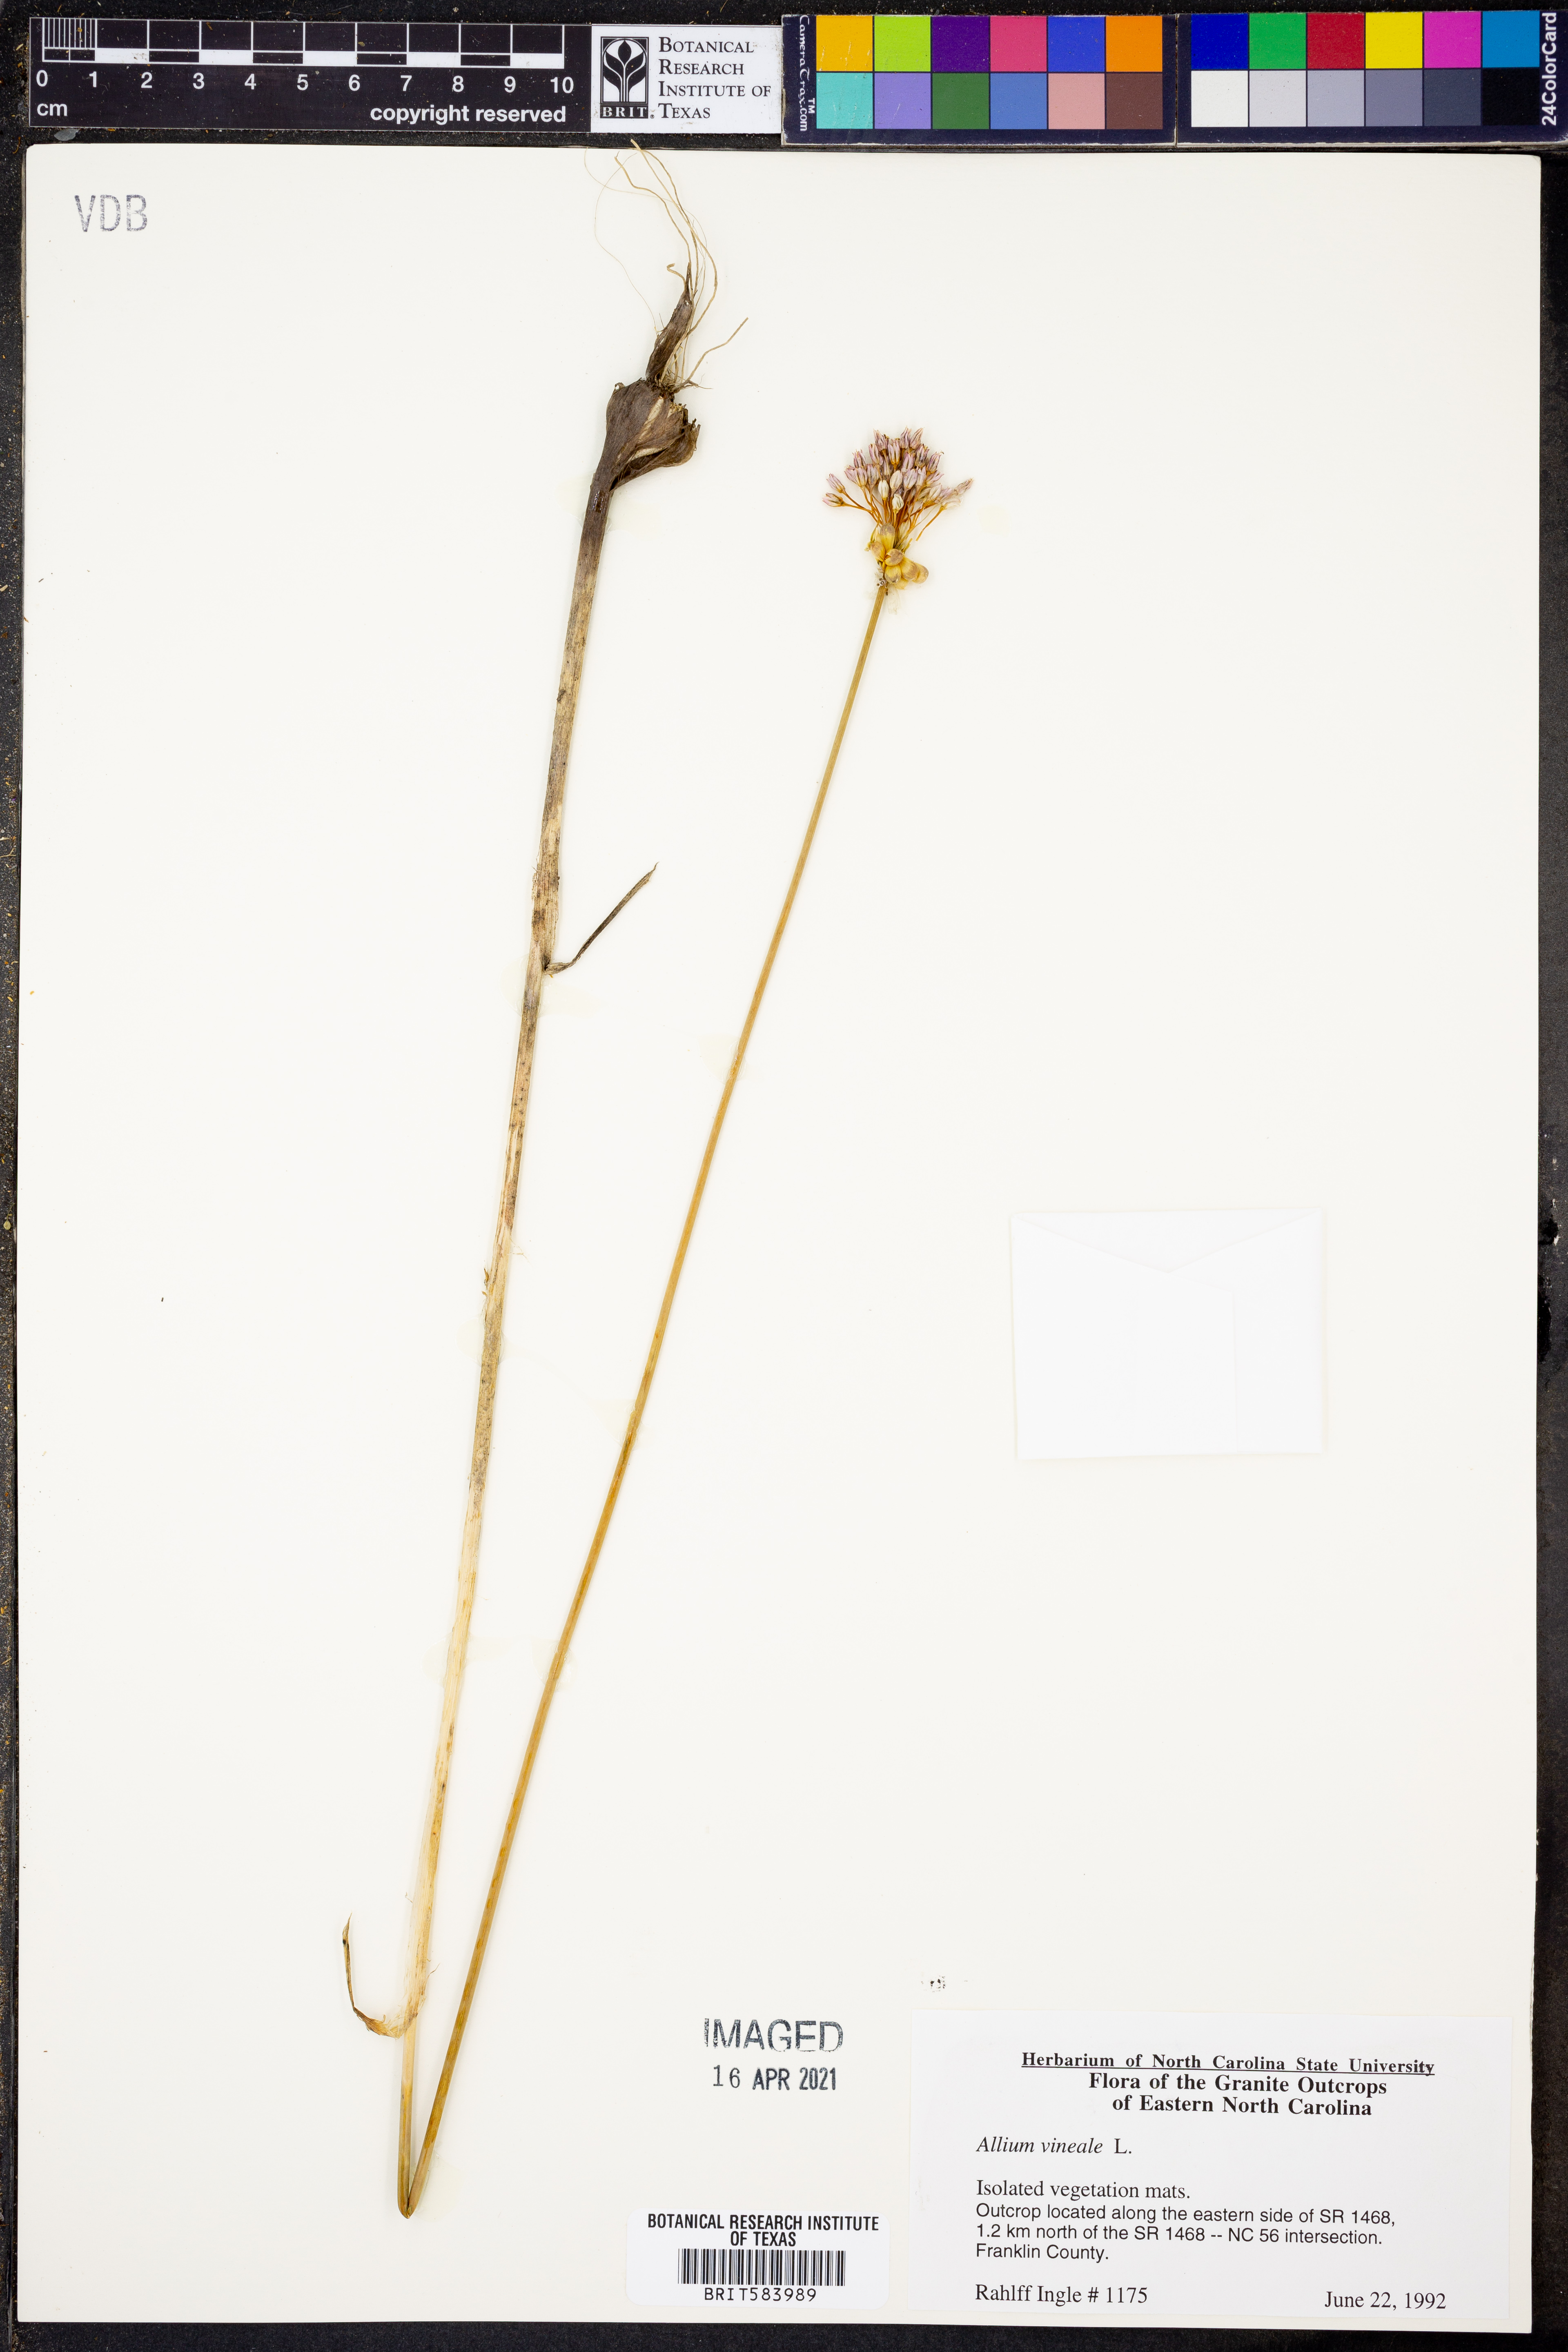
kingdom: Plantae
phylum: Tracheophyta
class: Liliopsida
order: Asparagales
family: Amaryllidaceae
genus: Allium
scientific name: Allium vineale
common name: Crow garlic
